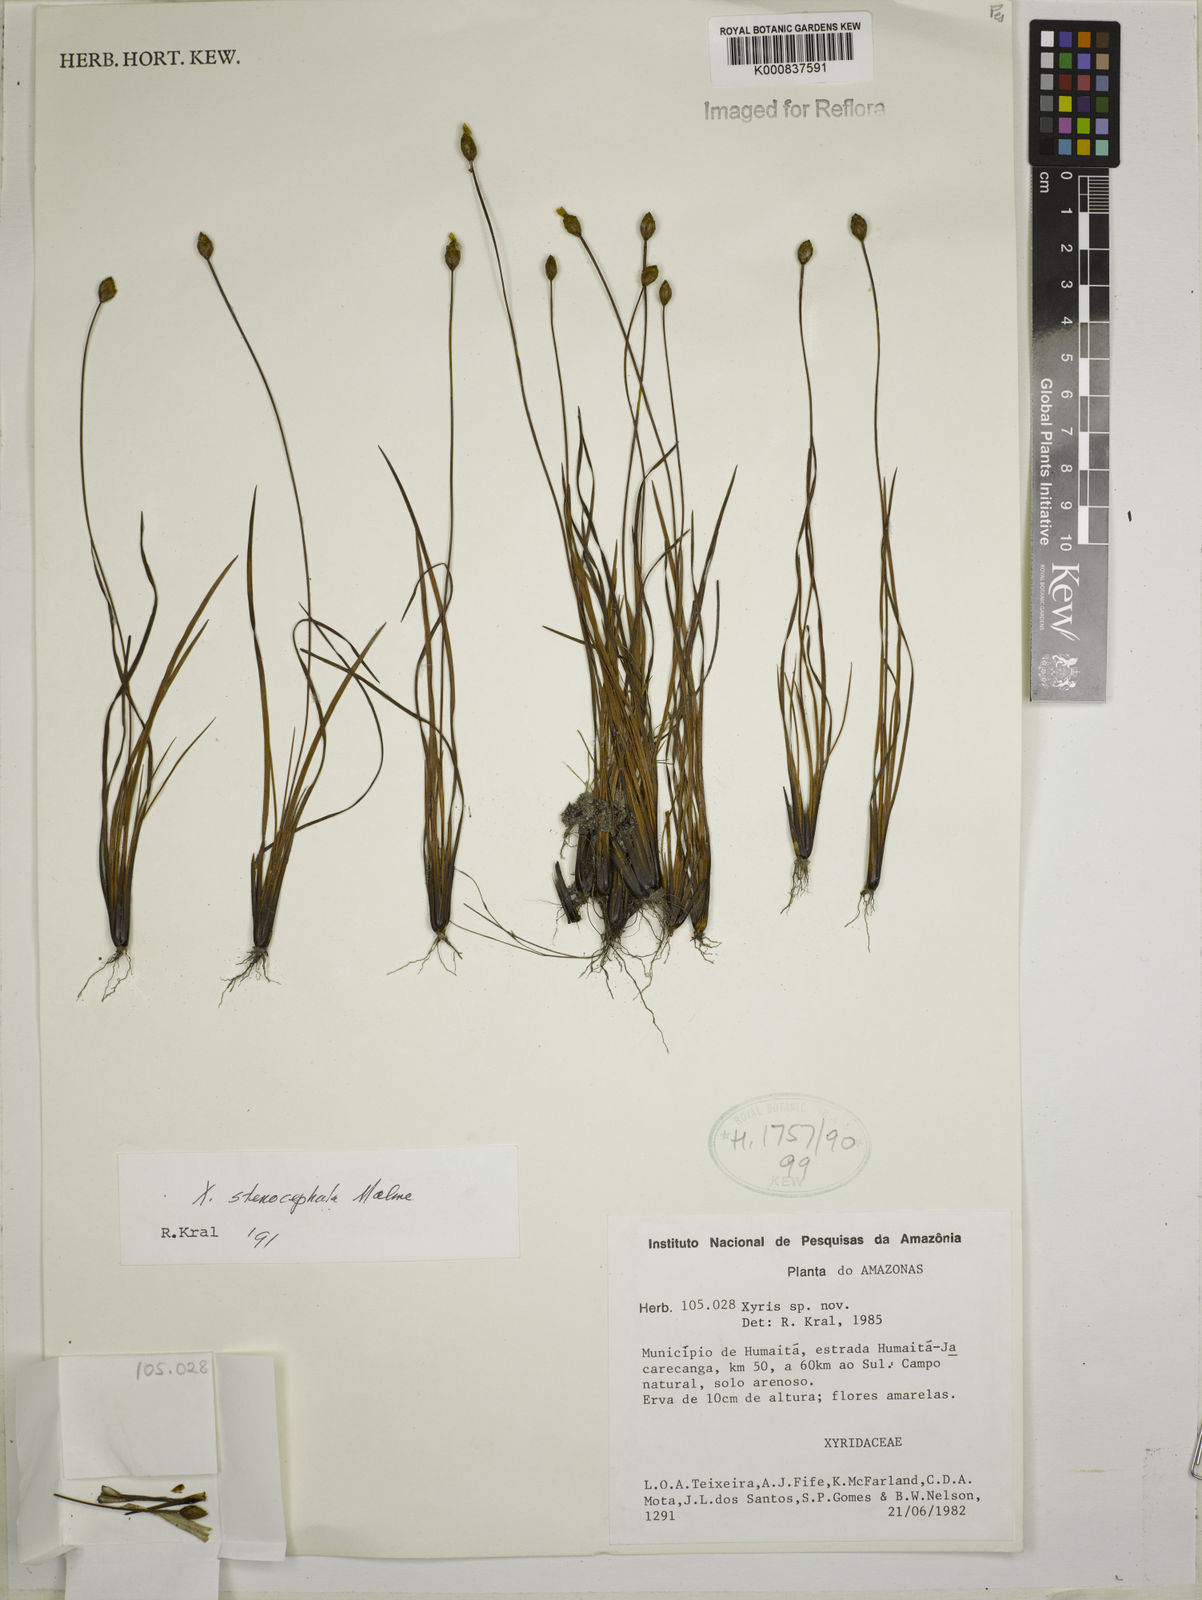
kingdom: Plantae
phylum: Tracheophyta
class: Liliopsida
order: Poales
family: Xyridaceae
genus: Xyris
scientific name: Xyris stenocephala
